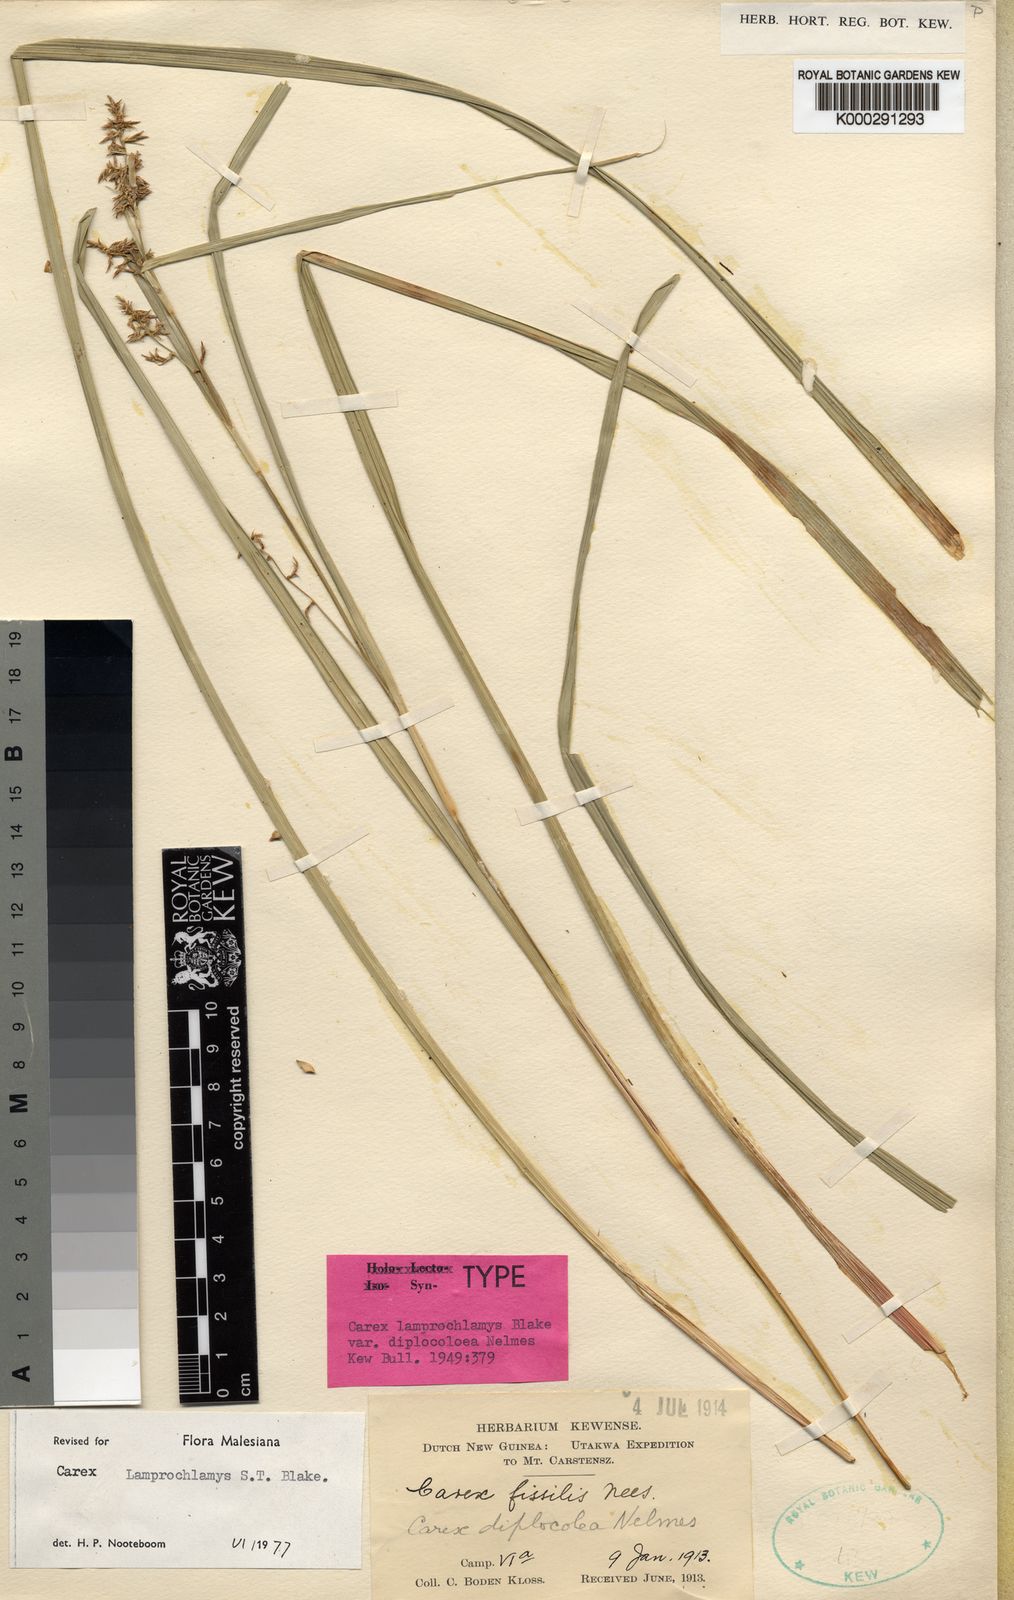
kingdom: Plantae
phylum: Tracheophyta
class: Liliopsida
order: Poales
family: Cyperaceae
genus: Carex
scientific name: Carex lamprochlamys
